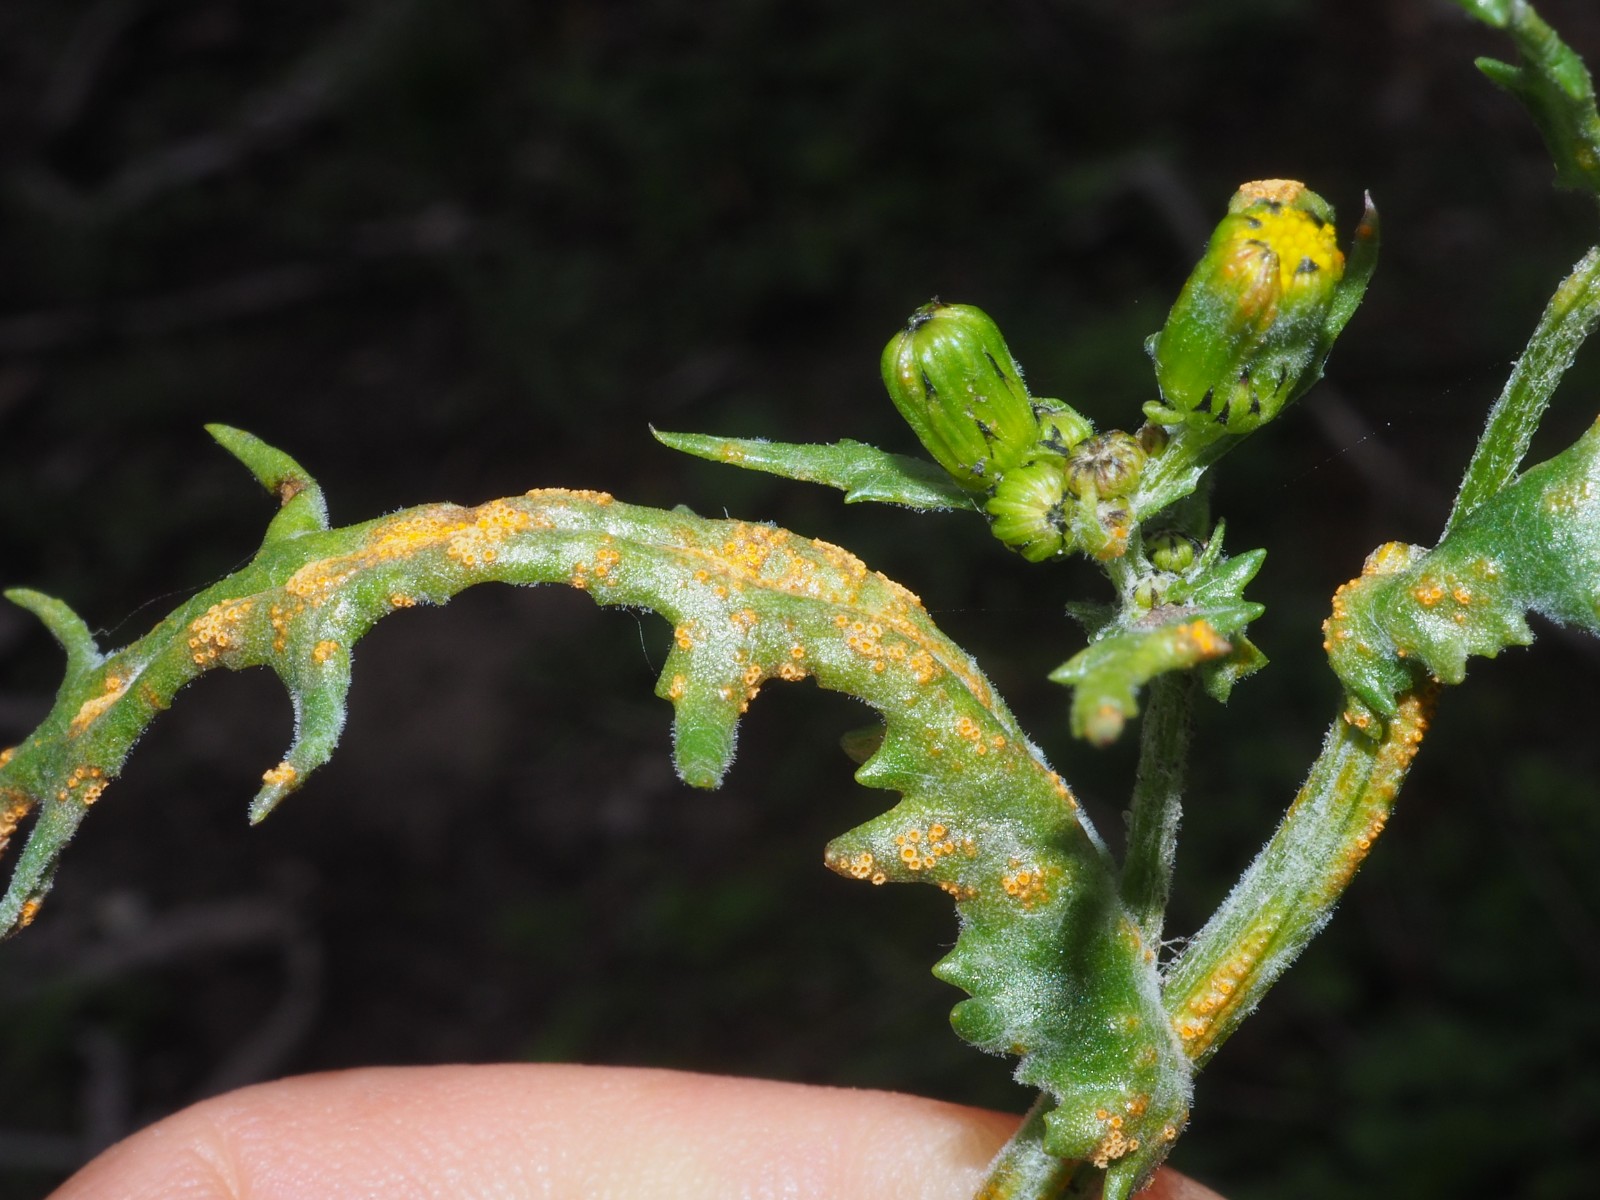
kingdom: Fungi
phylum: Basidiomycota
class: Pucciniomycetes
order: Pucciniales
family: Pucciniaceae
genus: Puccinia
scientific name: Puccinia lagenophorae
